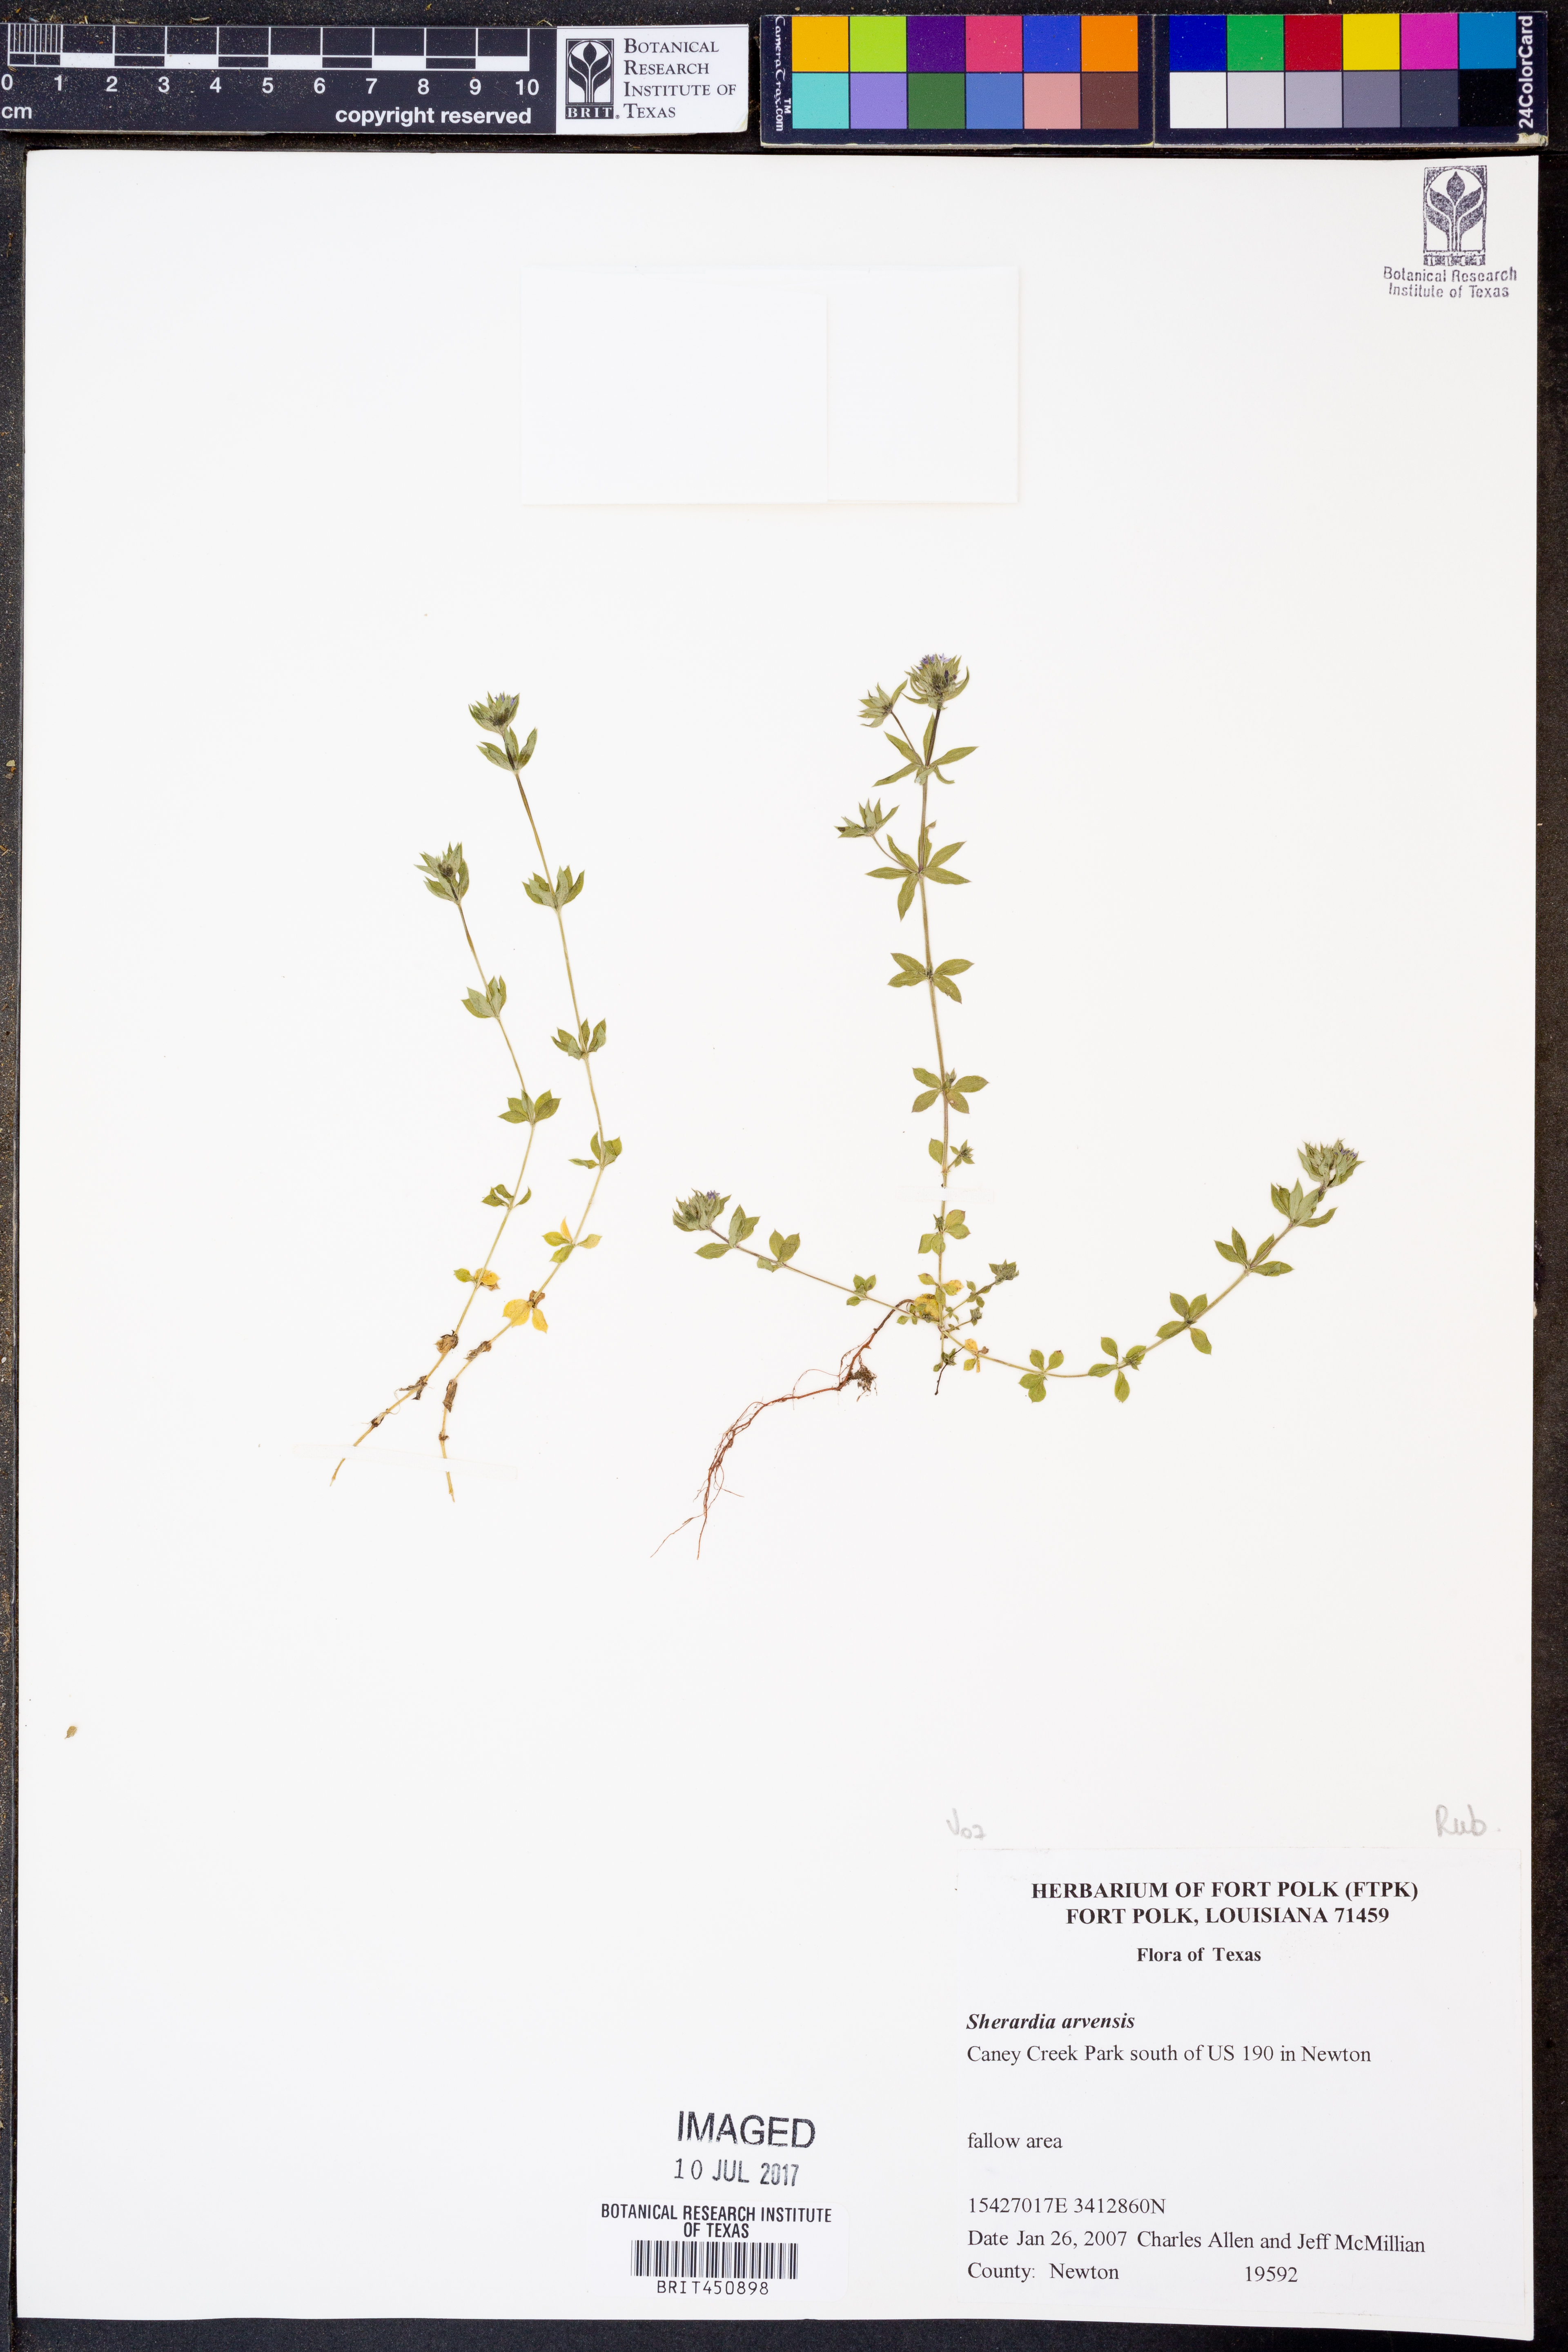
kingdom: Plantae
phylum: Tracheophyta
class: Magnoliopsida
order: Gentianales
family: Rubiaceae
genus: Sherardia
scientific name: Sherardia arvensis
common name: Field madder
